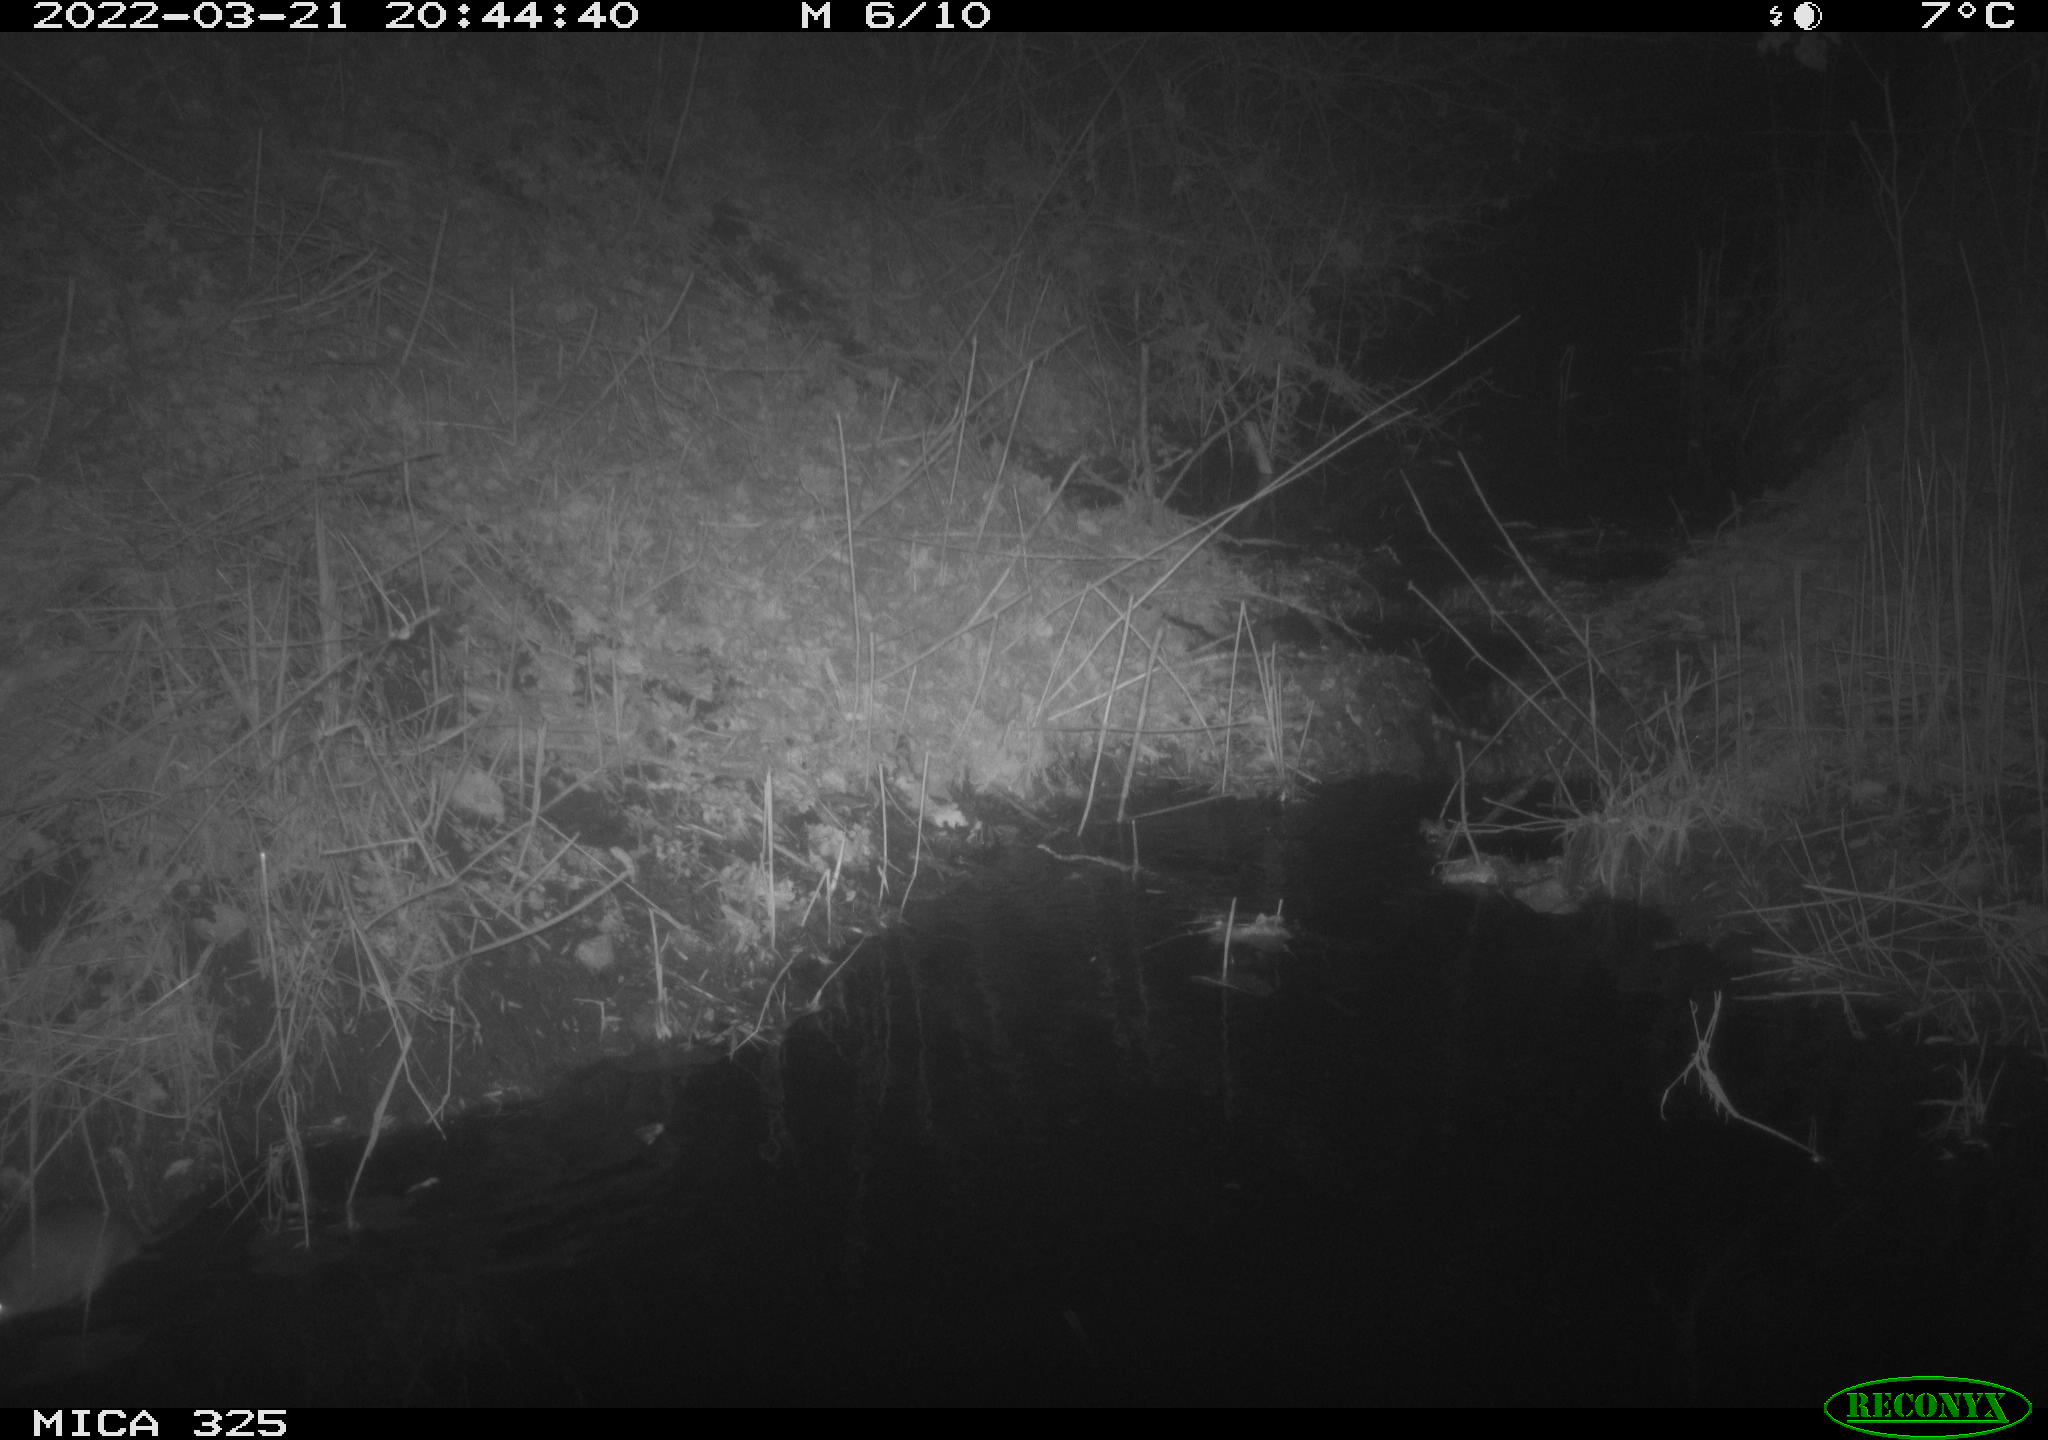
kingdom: Animalia
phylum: Chordata
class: Mammalia
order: Rodentia
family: Muridae
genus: Rattus
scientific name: Rattus norvegicus
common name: Brown rat
